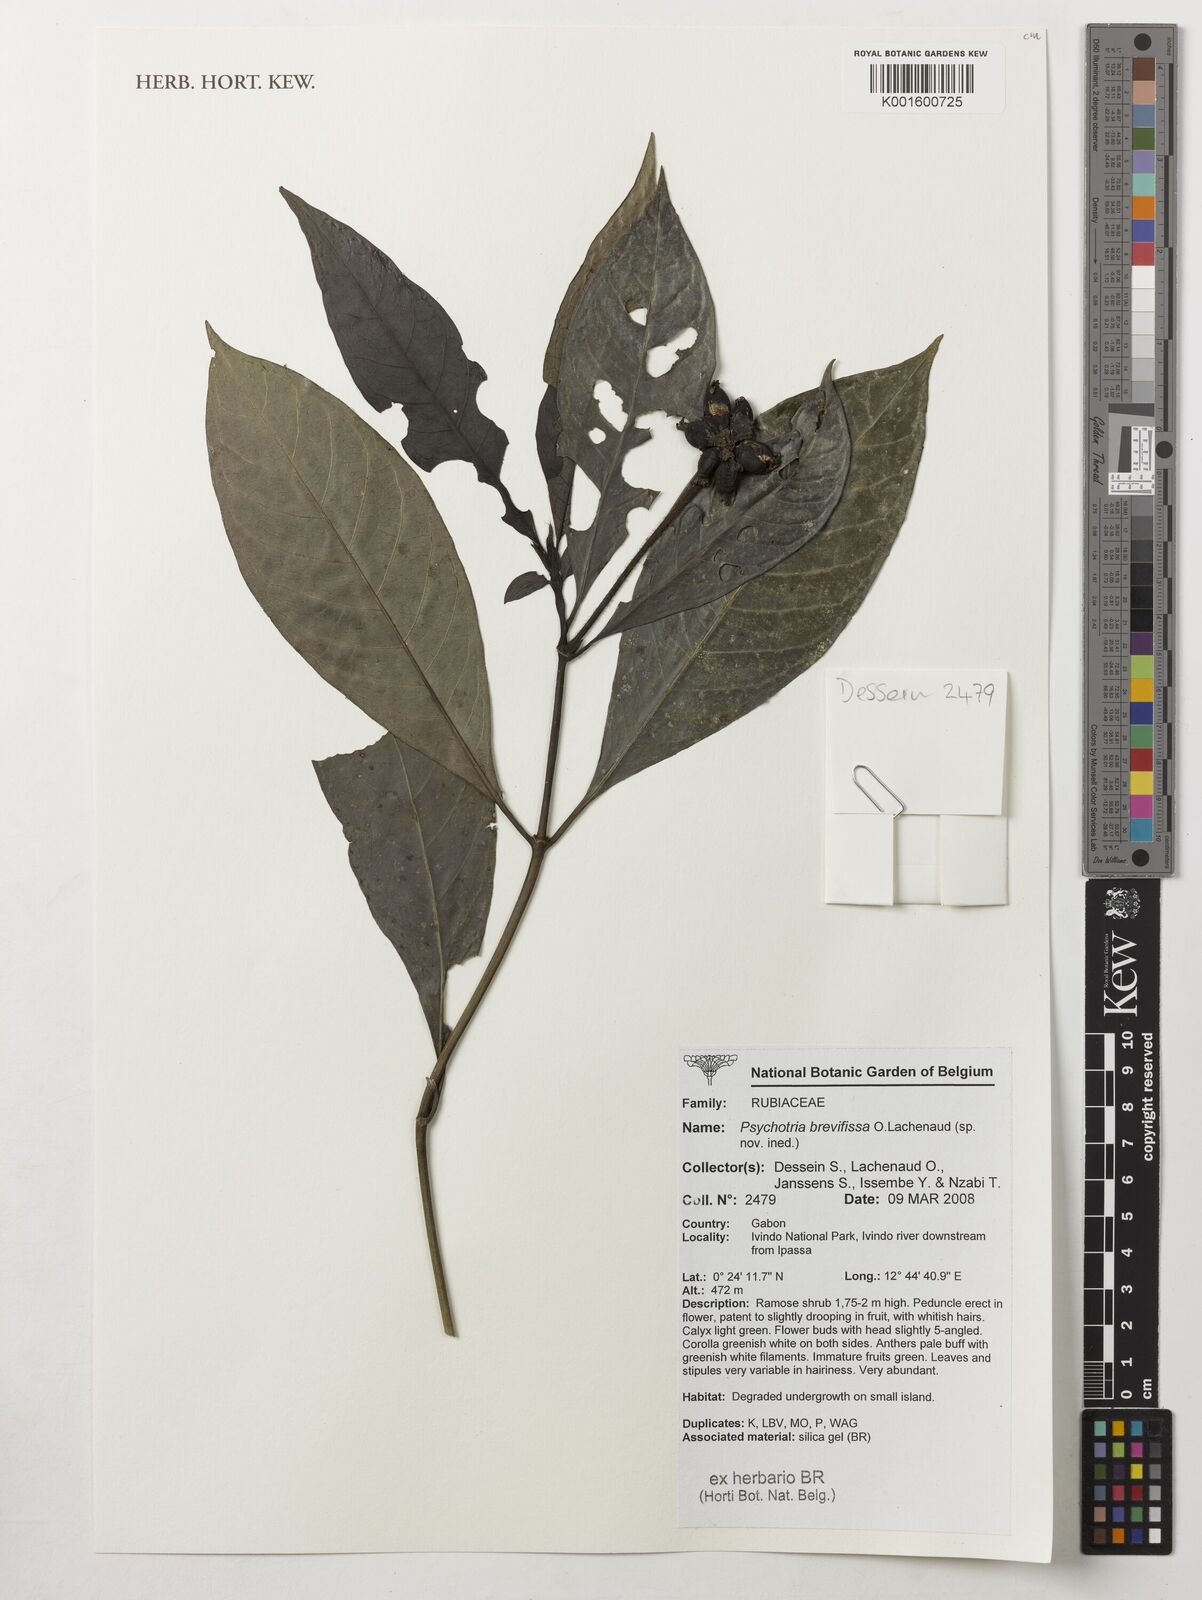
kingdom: Plantae
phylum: Tracheophyta
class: Magnoliopsida
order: Gentianales
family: Rubiaceae
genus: Psychotria
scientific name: Psychotria brevifissa
